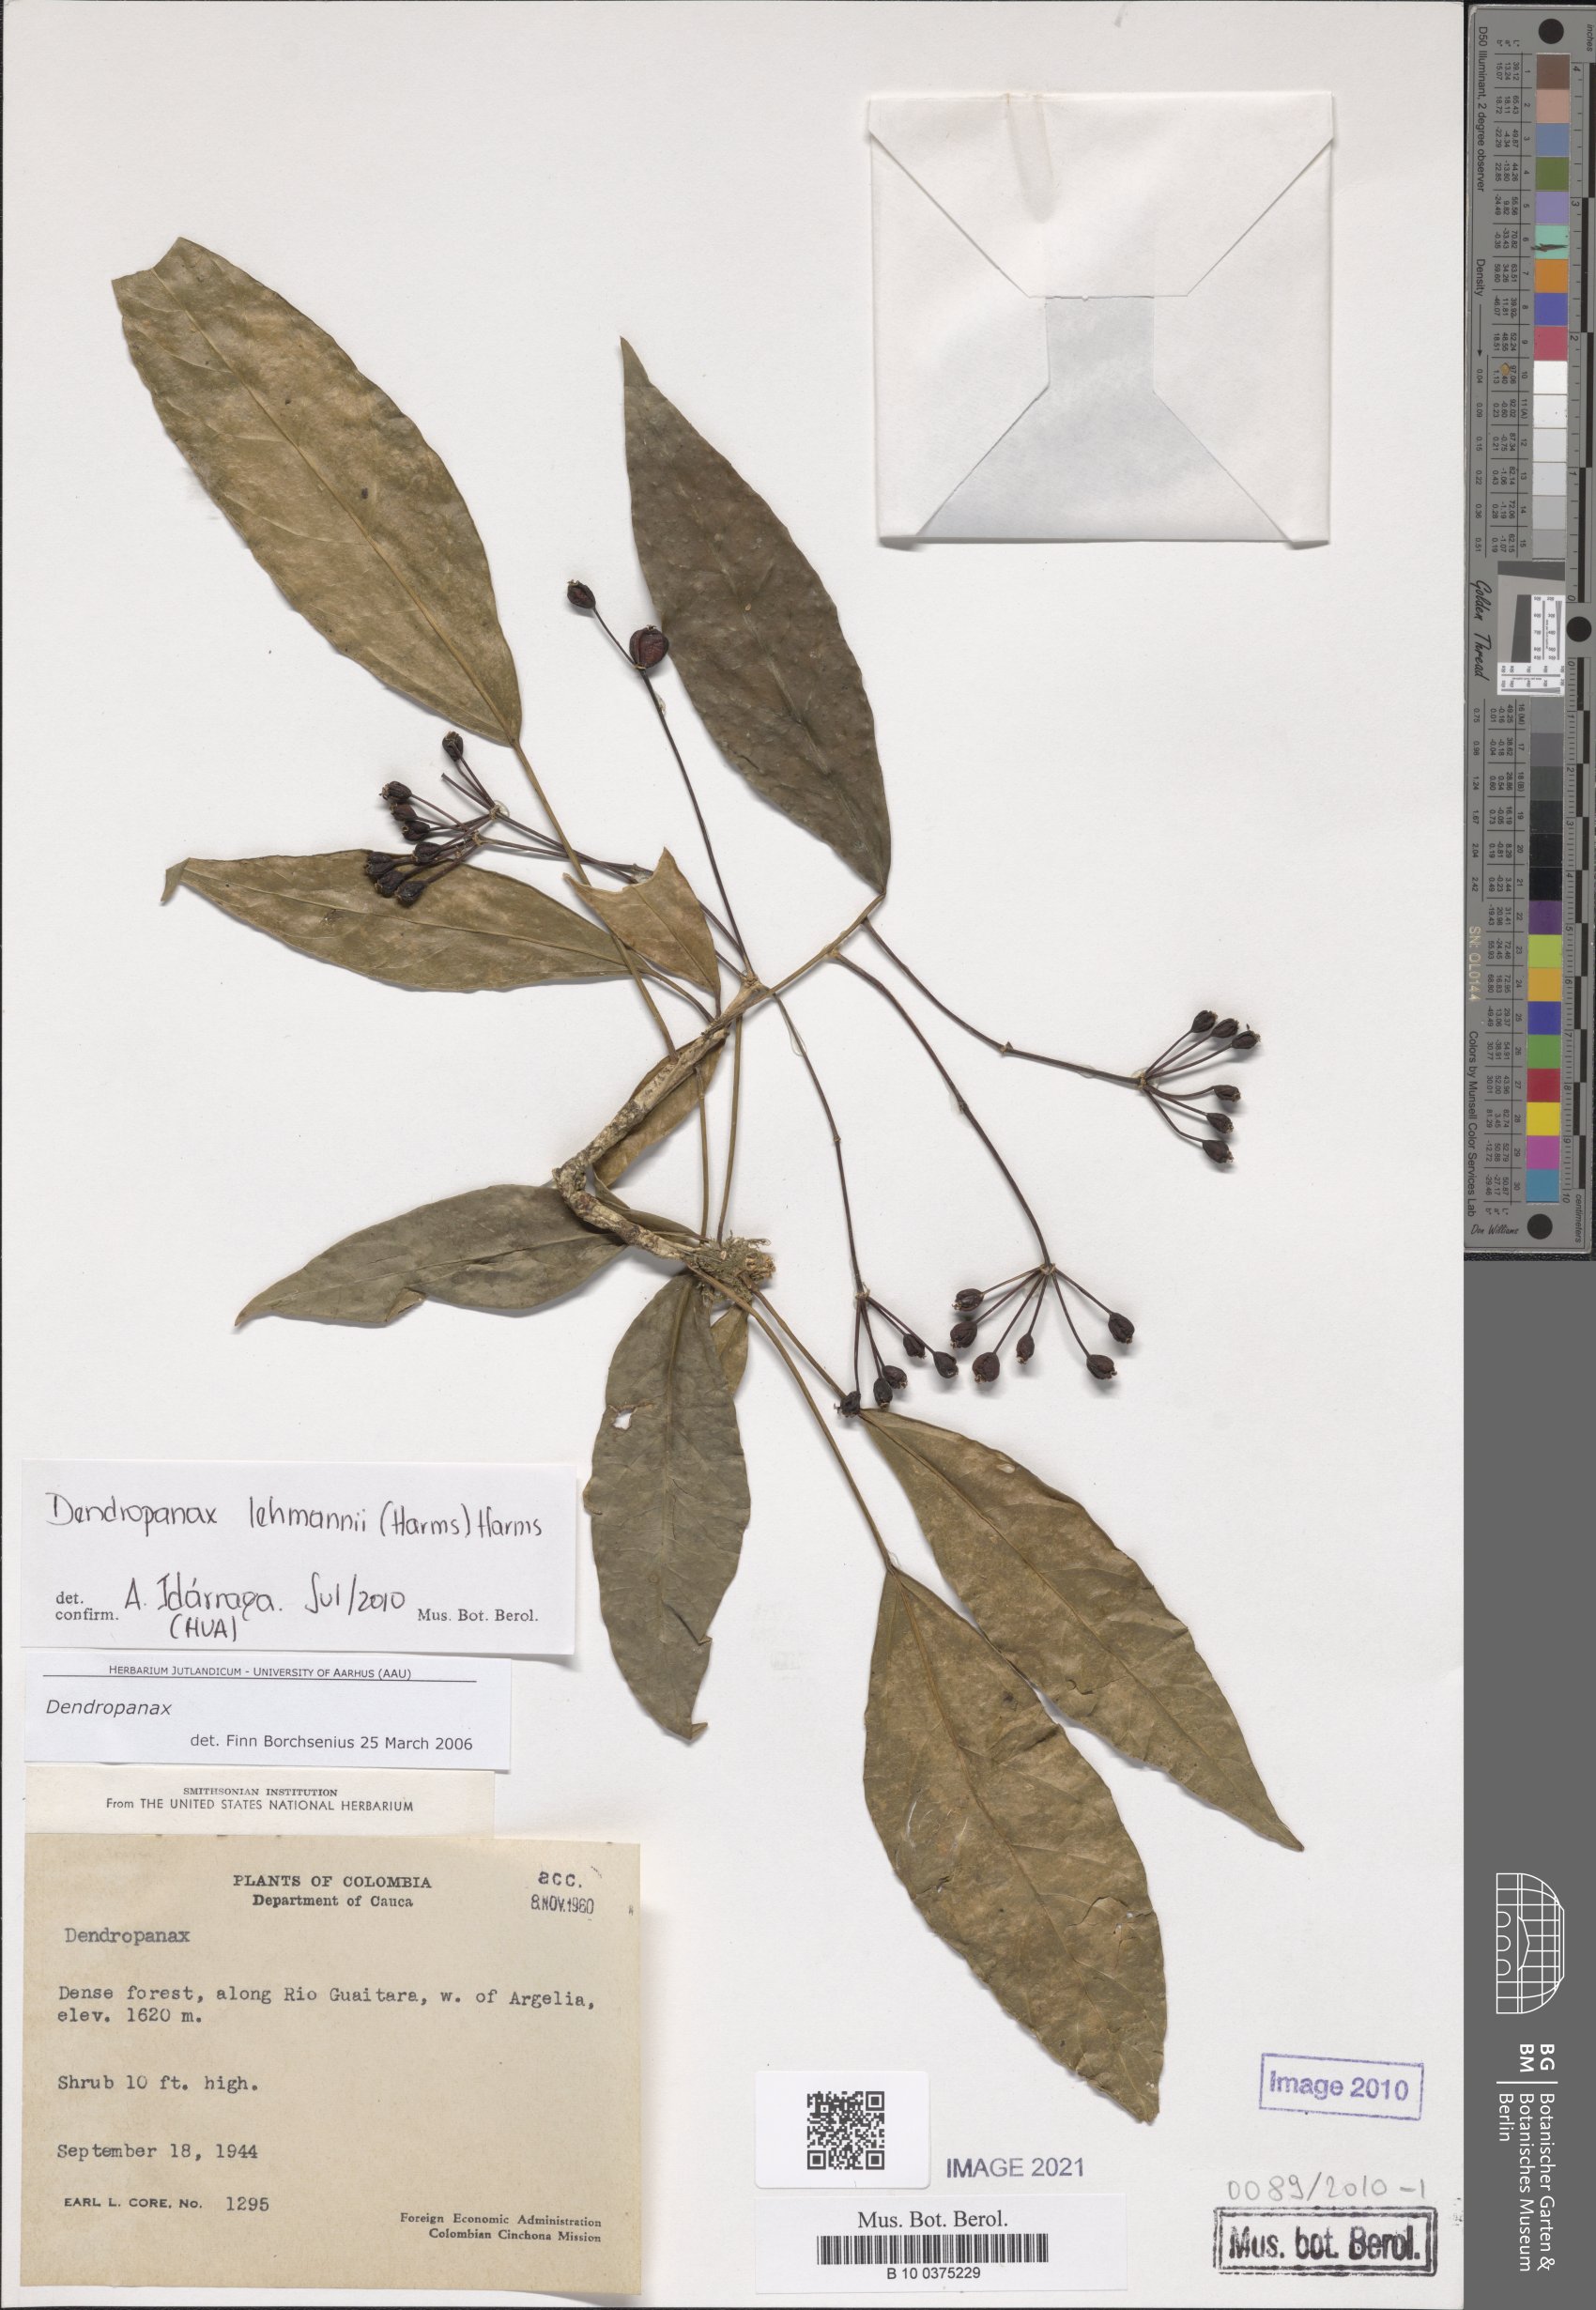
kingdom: Plantae
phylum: Tracheophyta
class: Magnoliopsida
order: Apiales
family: Araliaceae
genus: Dendropanax
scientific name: Dendropanax lehmannii
